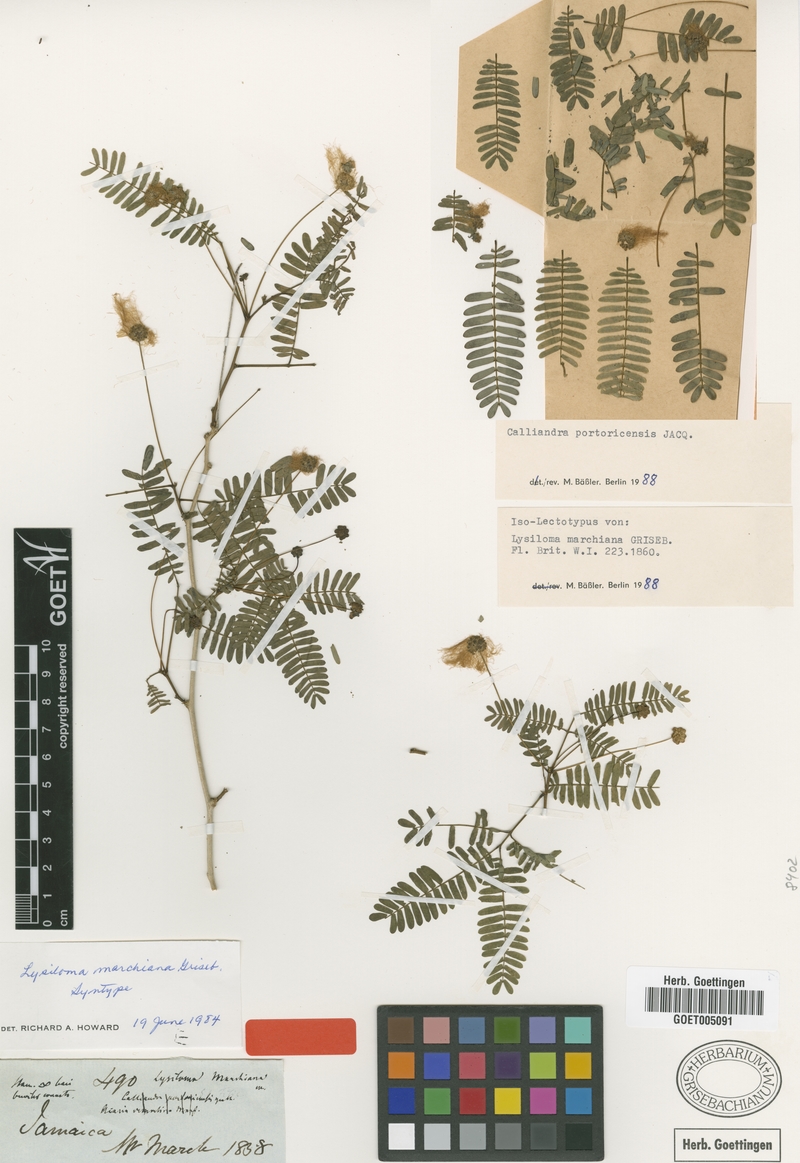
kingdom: Plantae
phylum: Tracheophyta
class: Magnoliopsida
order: Fabales
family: Fabaceae
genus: Zapoteca
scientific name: Zapoteca portoricensis
